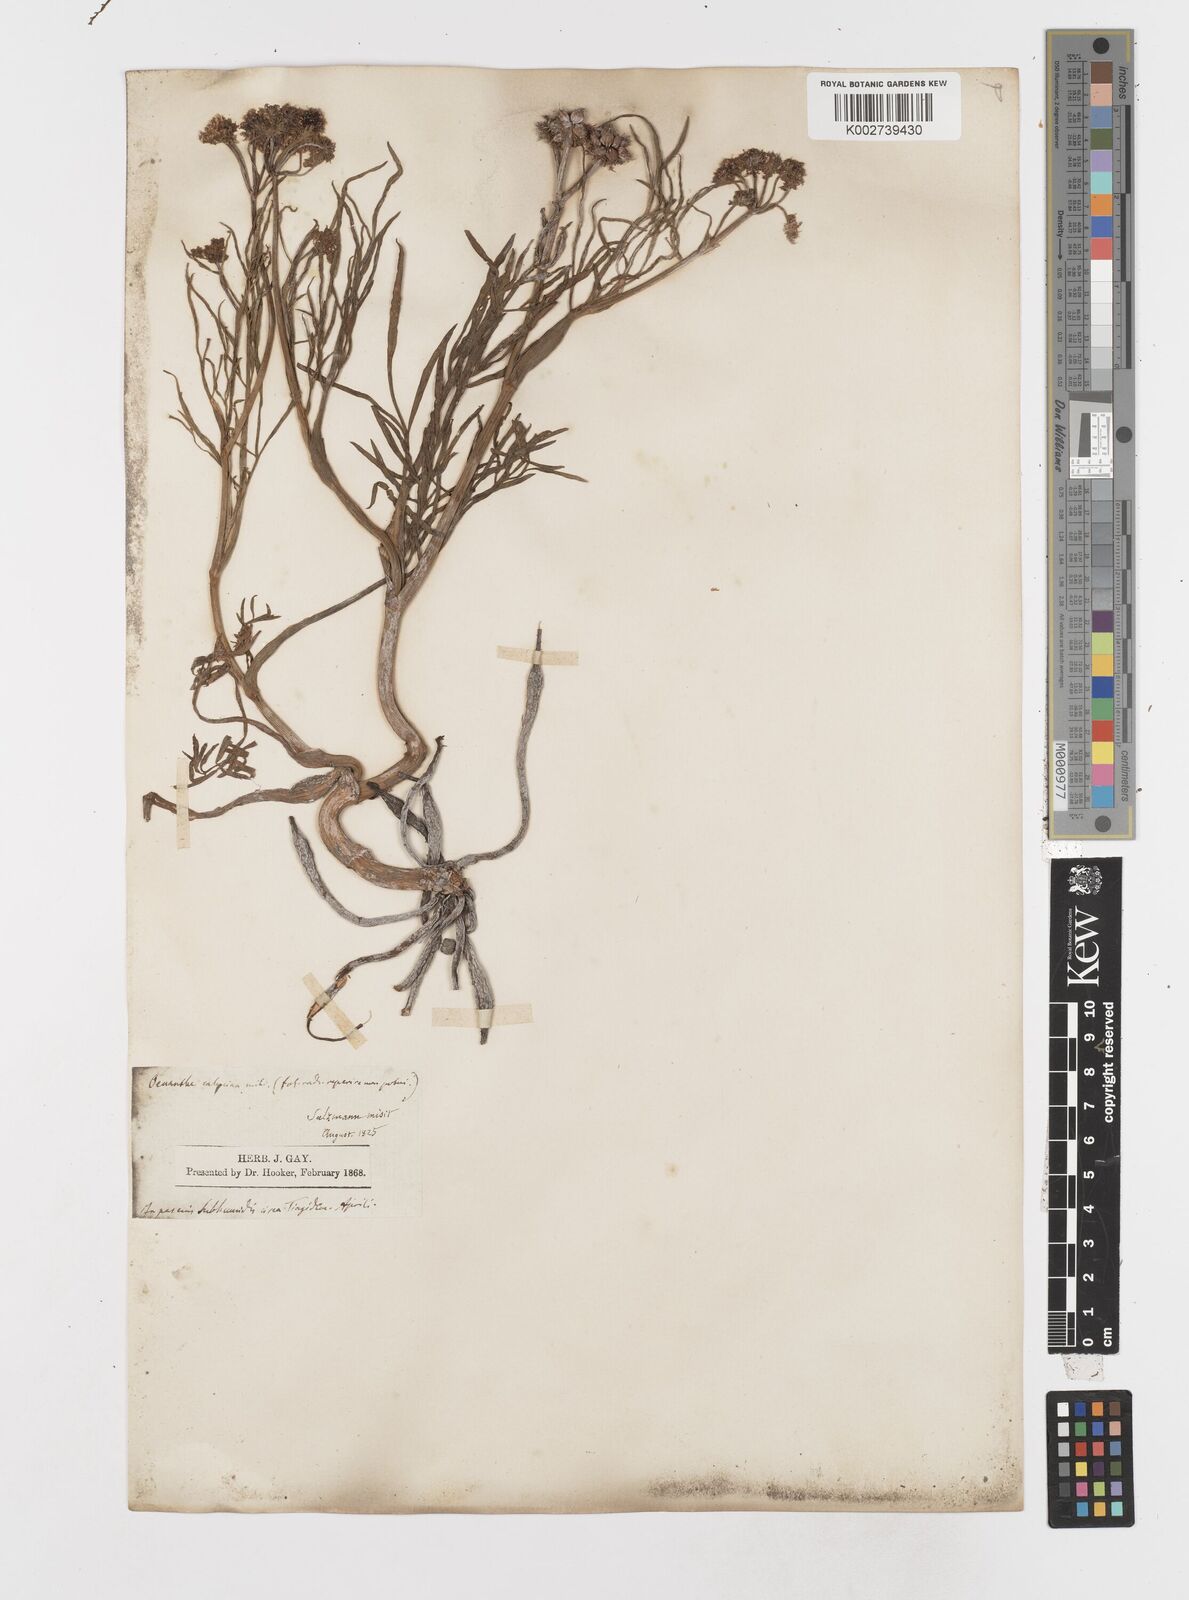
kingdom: Plantae
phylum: Tracheophyta
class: Magnoliopsida
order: Apiales
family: Apiaceae
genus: Oenanthe
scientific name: Oenanthe globulosa
